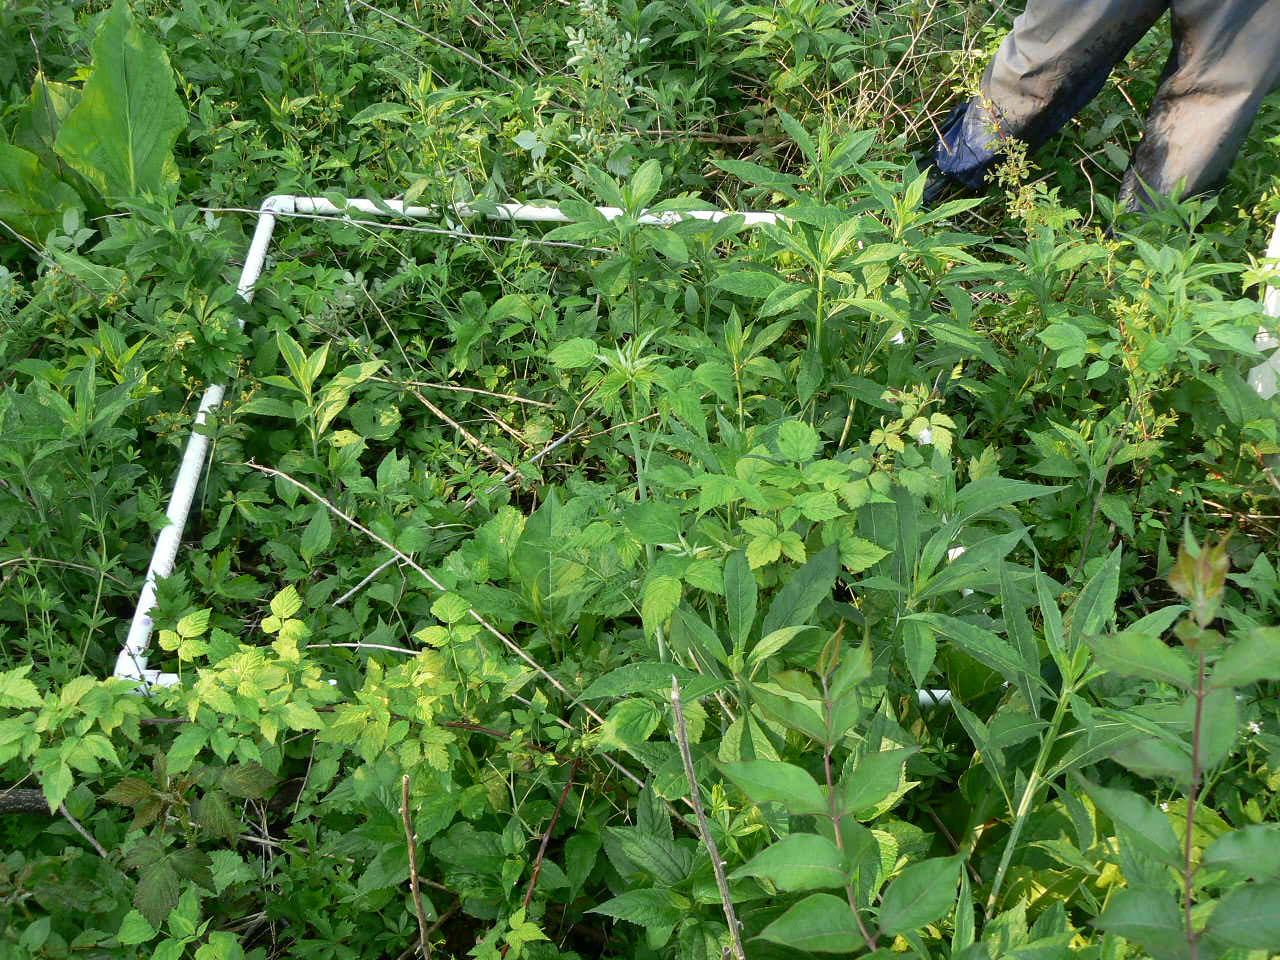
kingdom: Plantae
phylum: Tracheophyta
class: Magnoliopsida
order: Vitales
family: Vitaceae
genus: Parthenocissus
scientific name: Parthenocissus quinquefolia
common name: Virginia-creeper
